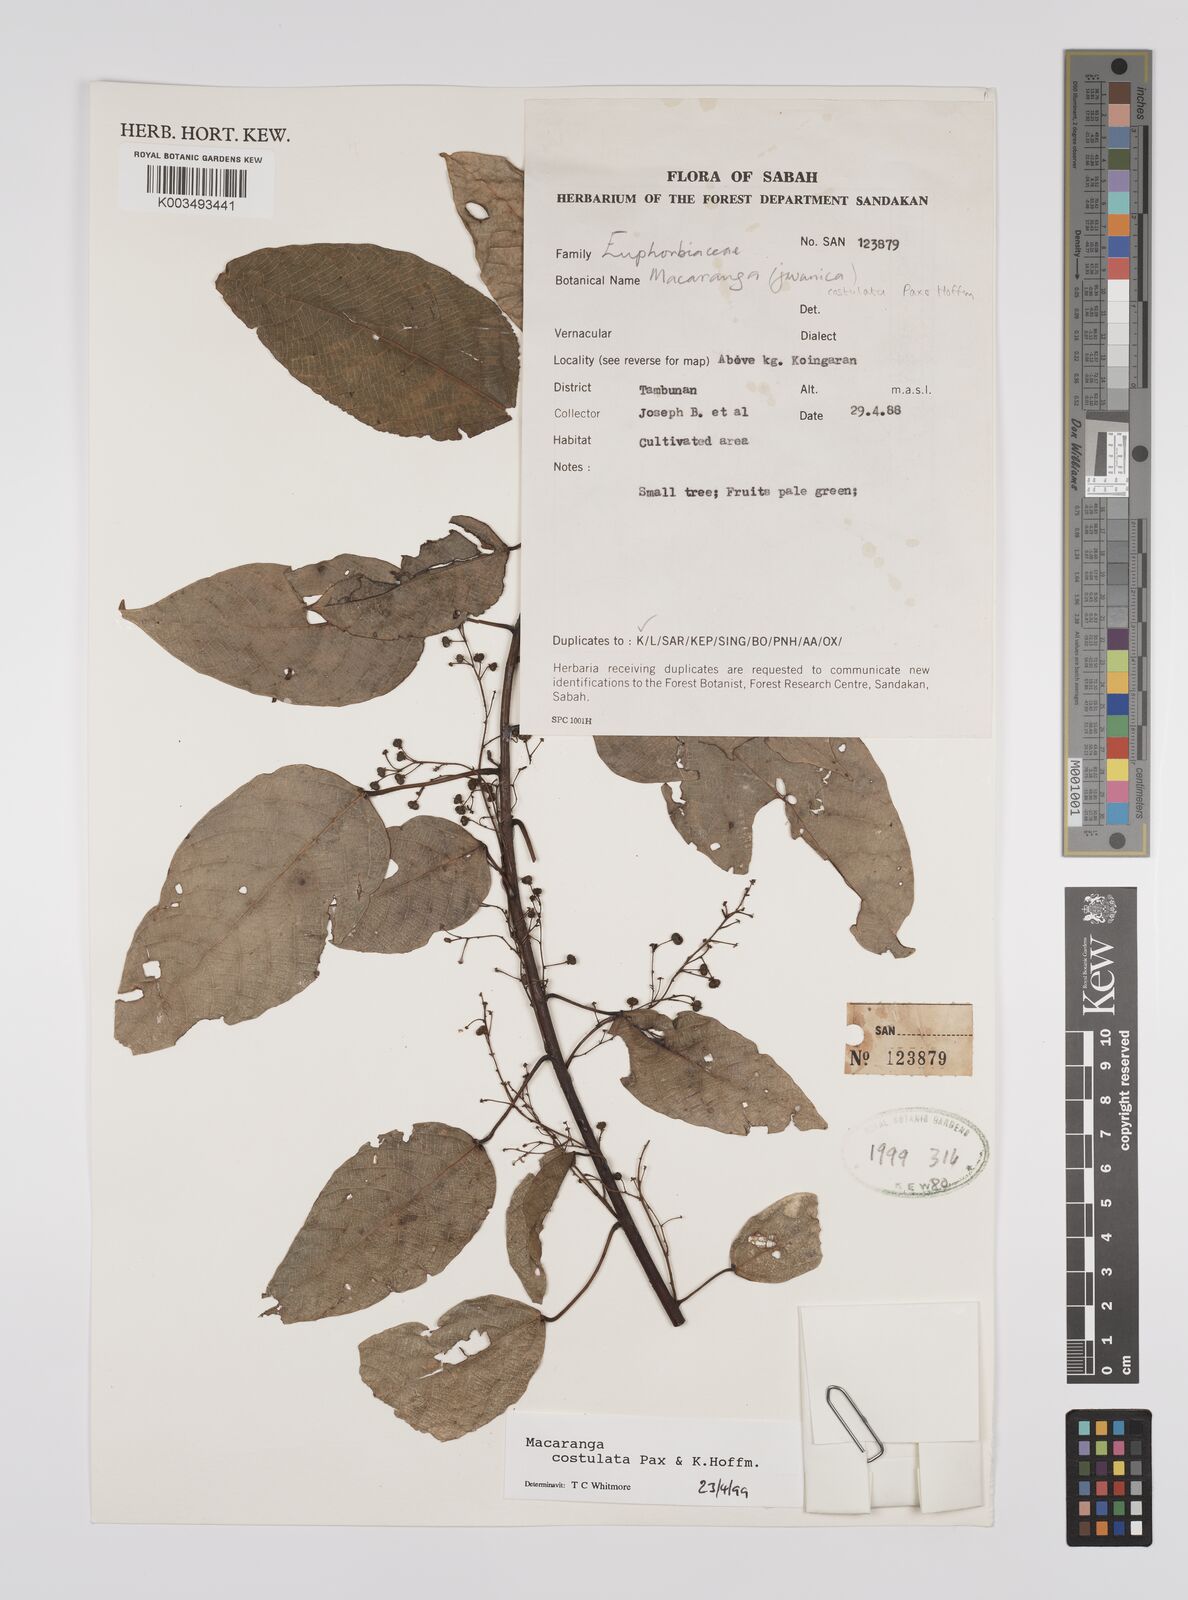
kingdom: Plantae
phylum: Tracheophyta
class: Magnoliopsida
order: Malpighiales
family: Euphorbiaceae
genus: Macaranga
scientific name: Macaranga costulata
